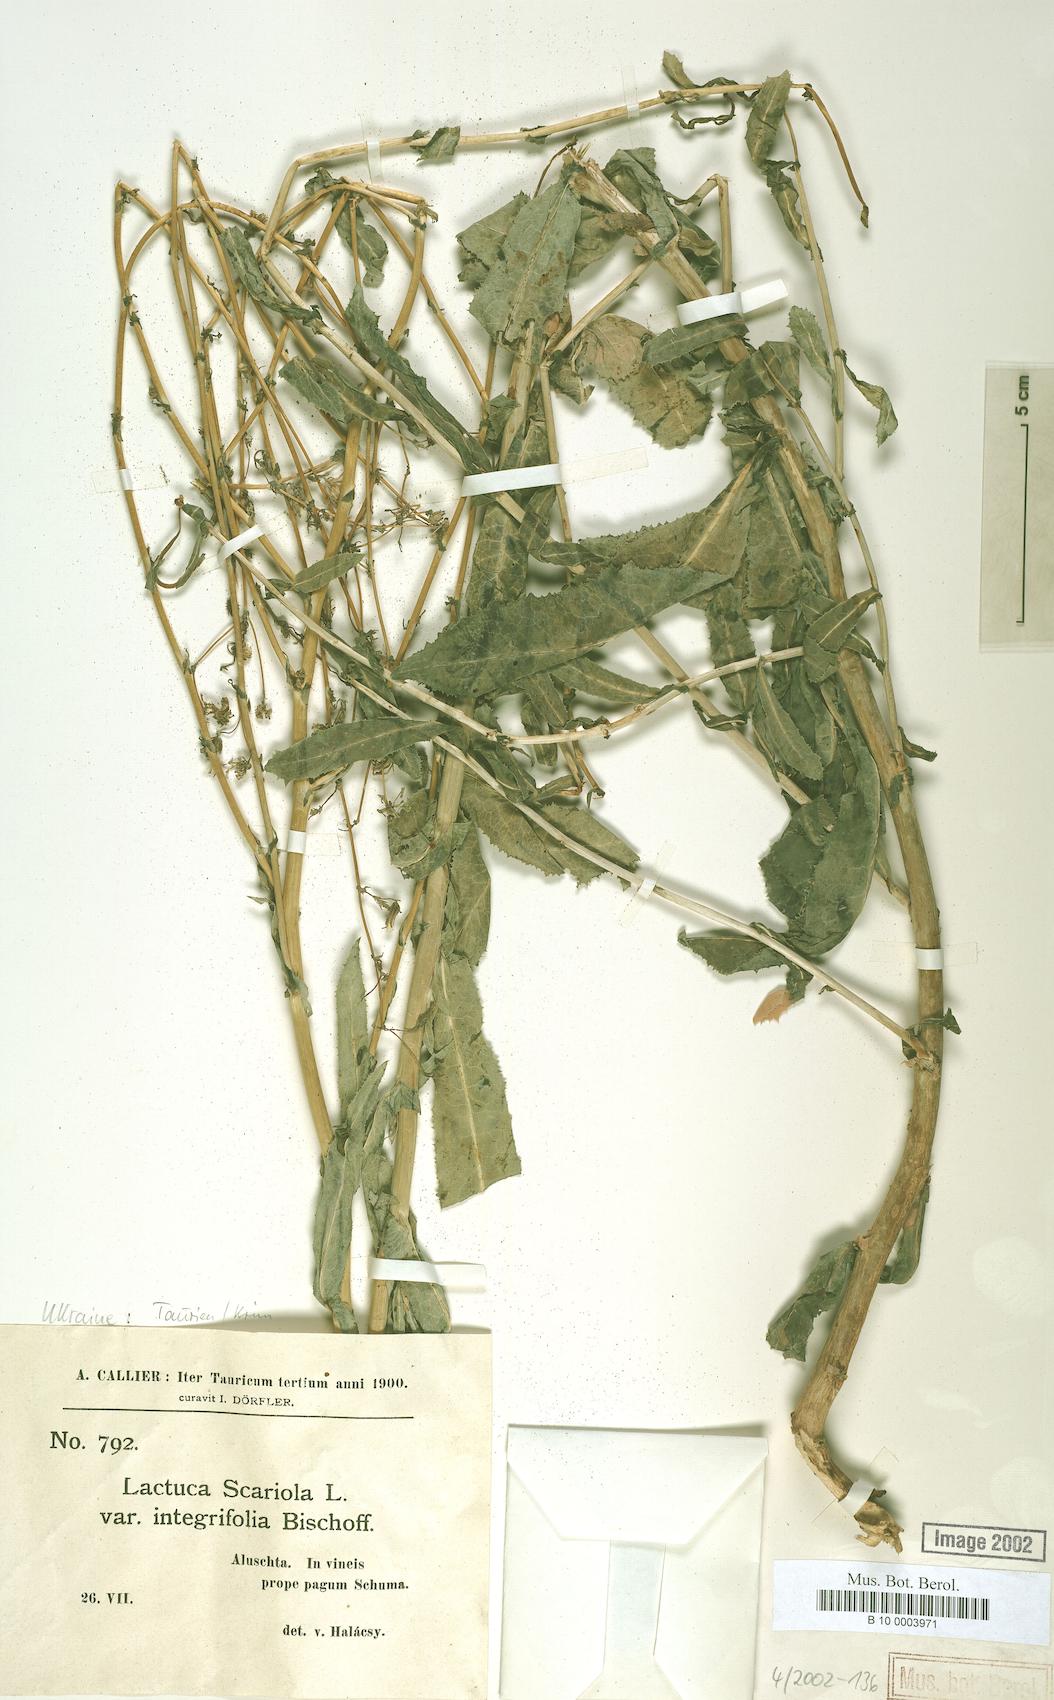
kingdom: Plantae
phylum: Tracheophyta
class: Magnoliopsida
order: Asterales
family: Asteraceae
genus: Lactuca
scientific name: Lactuca serriola
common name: Prickly lettuce
